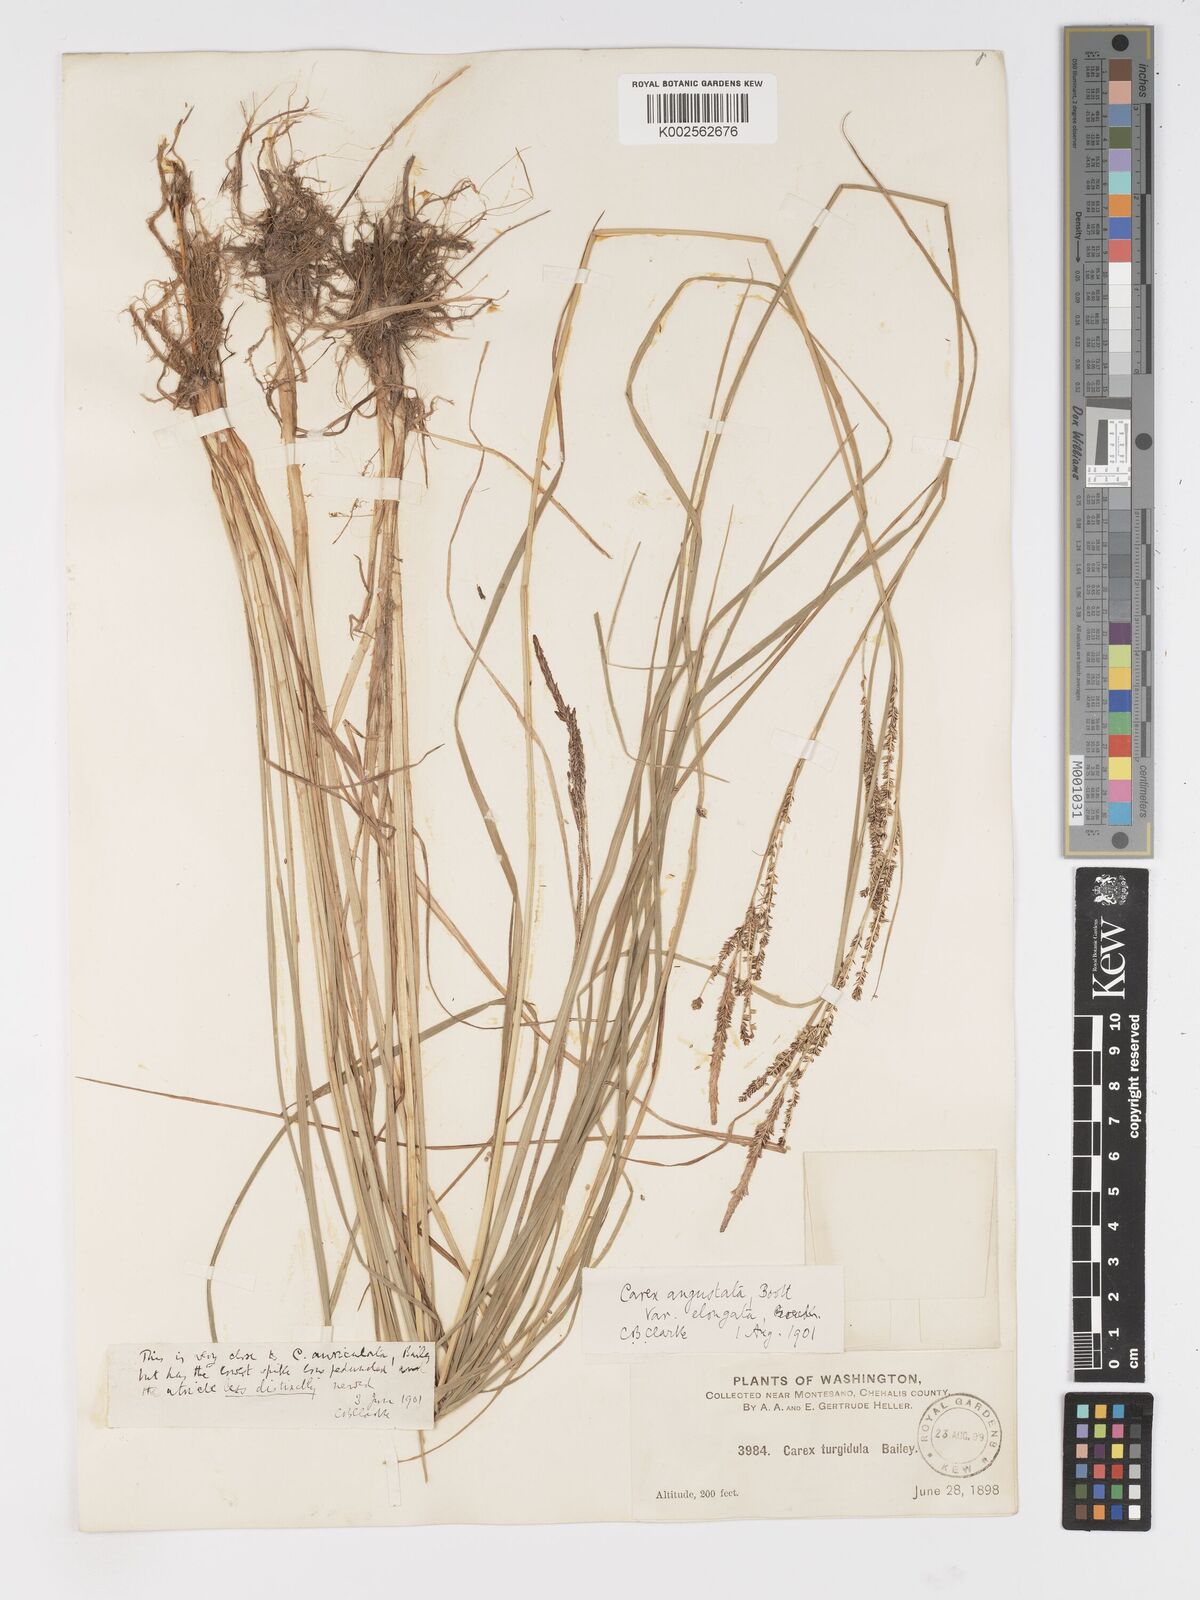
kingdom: Plantae
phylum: Tracheophyta
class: Liliopsida
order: Poales
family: Cyperaceae
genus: Carex
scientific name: Carex stricta
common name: Hummock sedge
